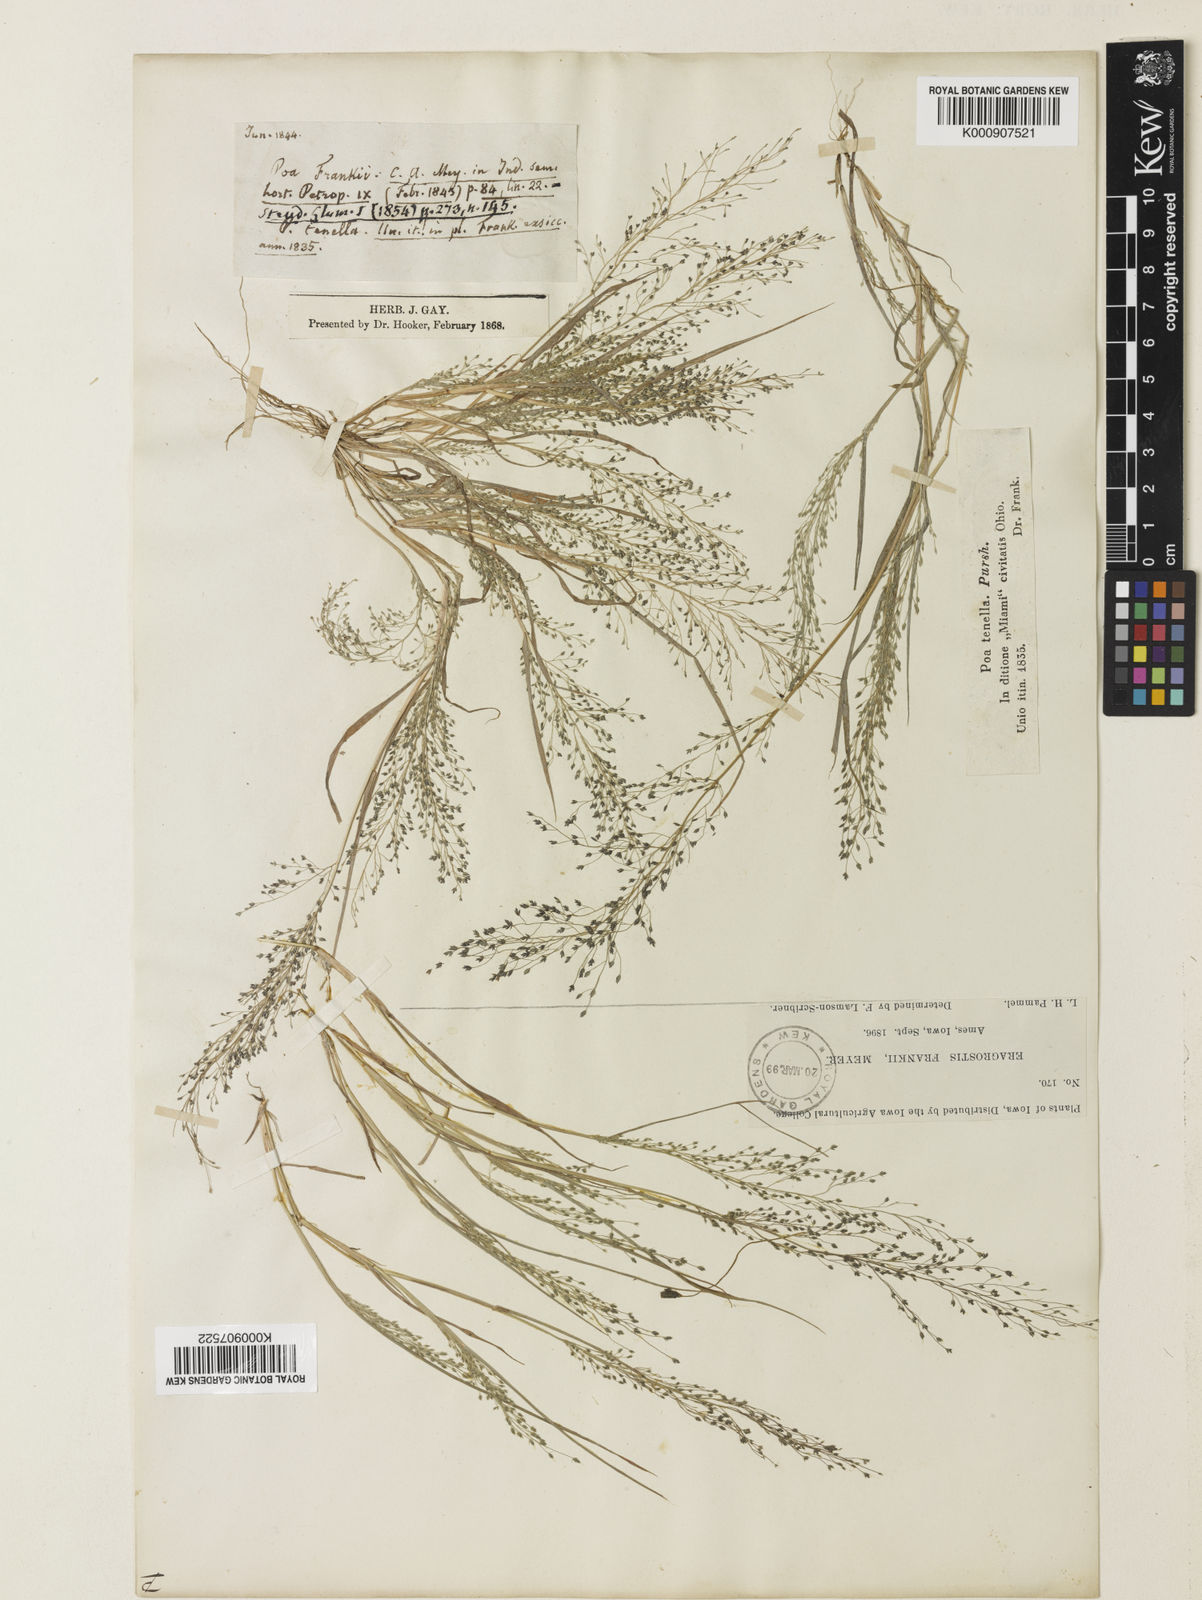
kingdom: Plantae
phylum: Tracheophyta
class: Liliopsida
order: Poales
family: Poaceae
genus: Eragrostis
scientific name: Eragrostis
